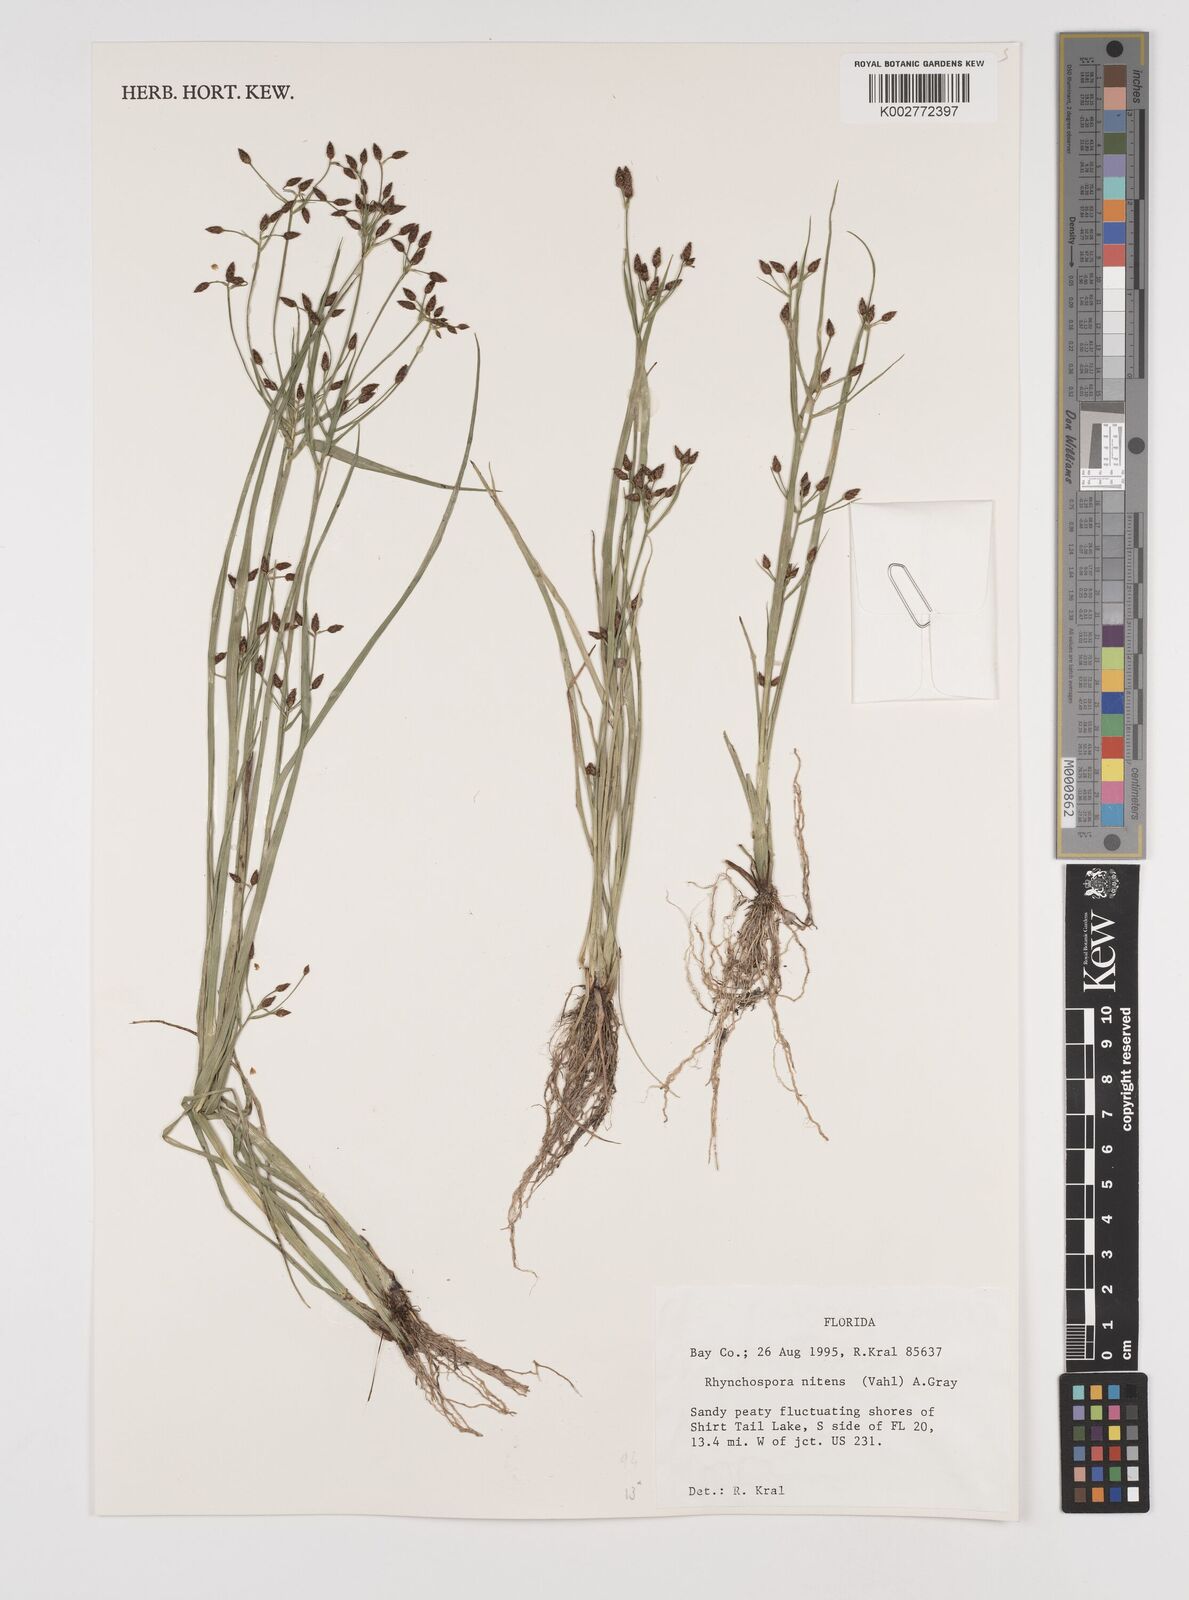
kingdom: Plantae
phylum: Tracheophyta
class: Liliopsida
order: Poales
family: Cyperaceae
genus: Rhynchospora
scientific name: Rhynchospora nitens
